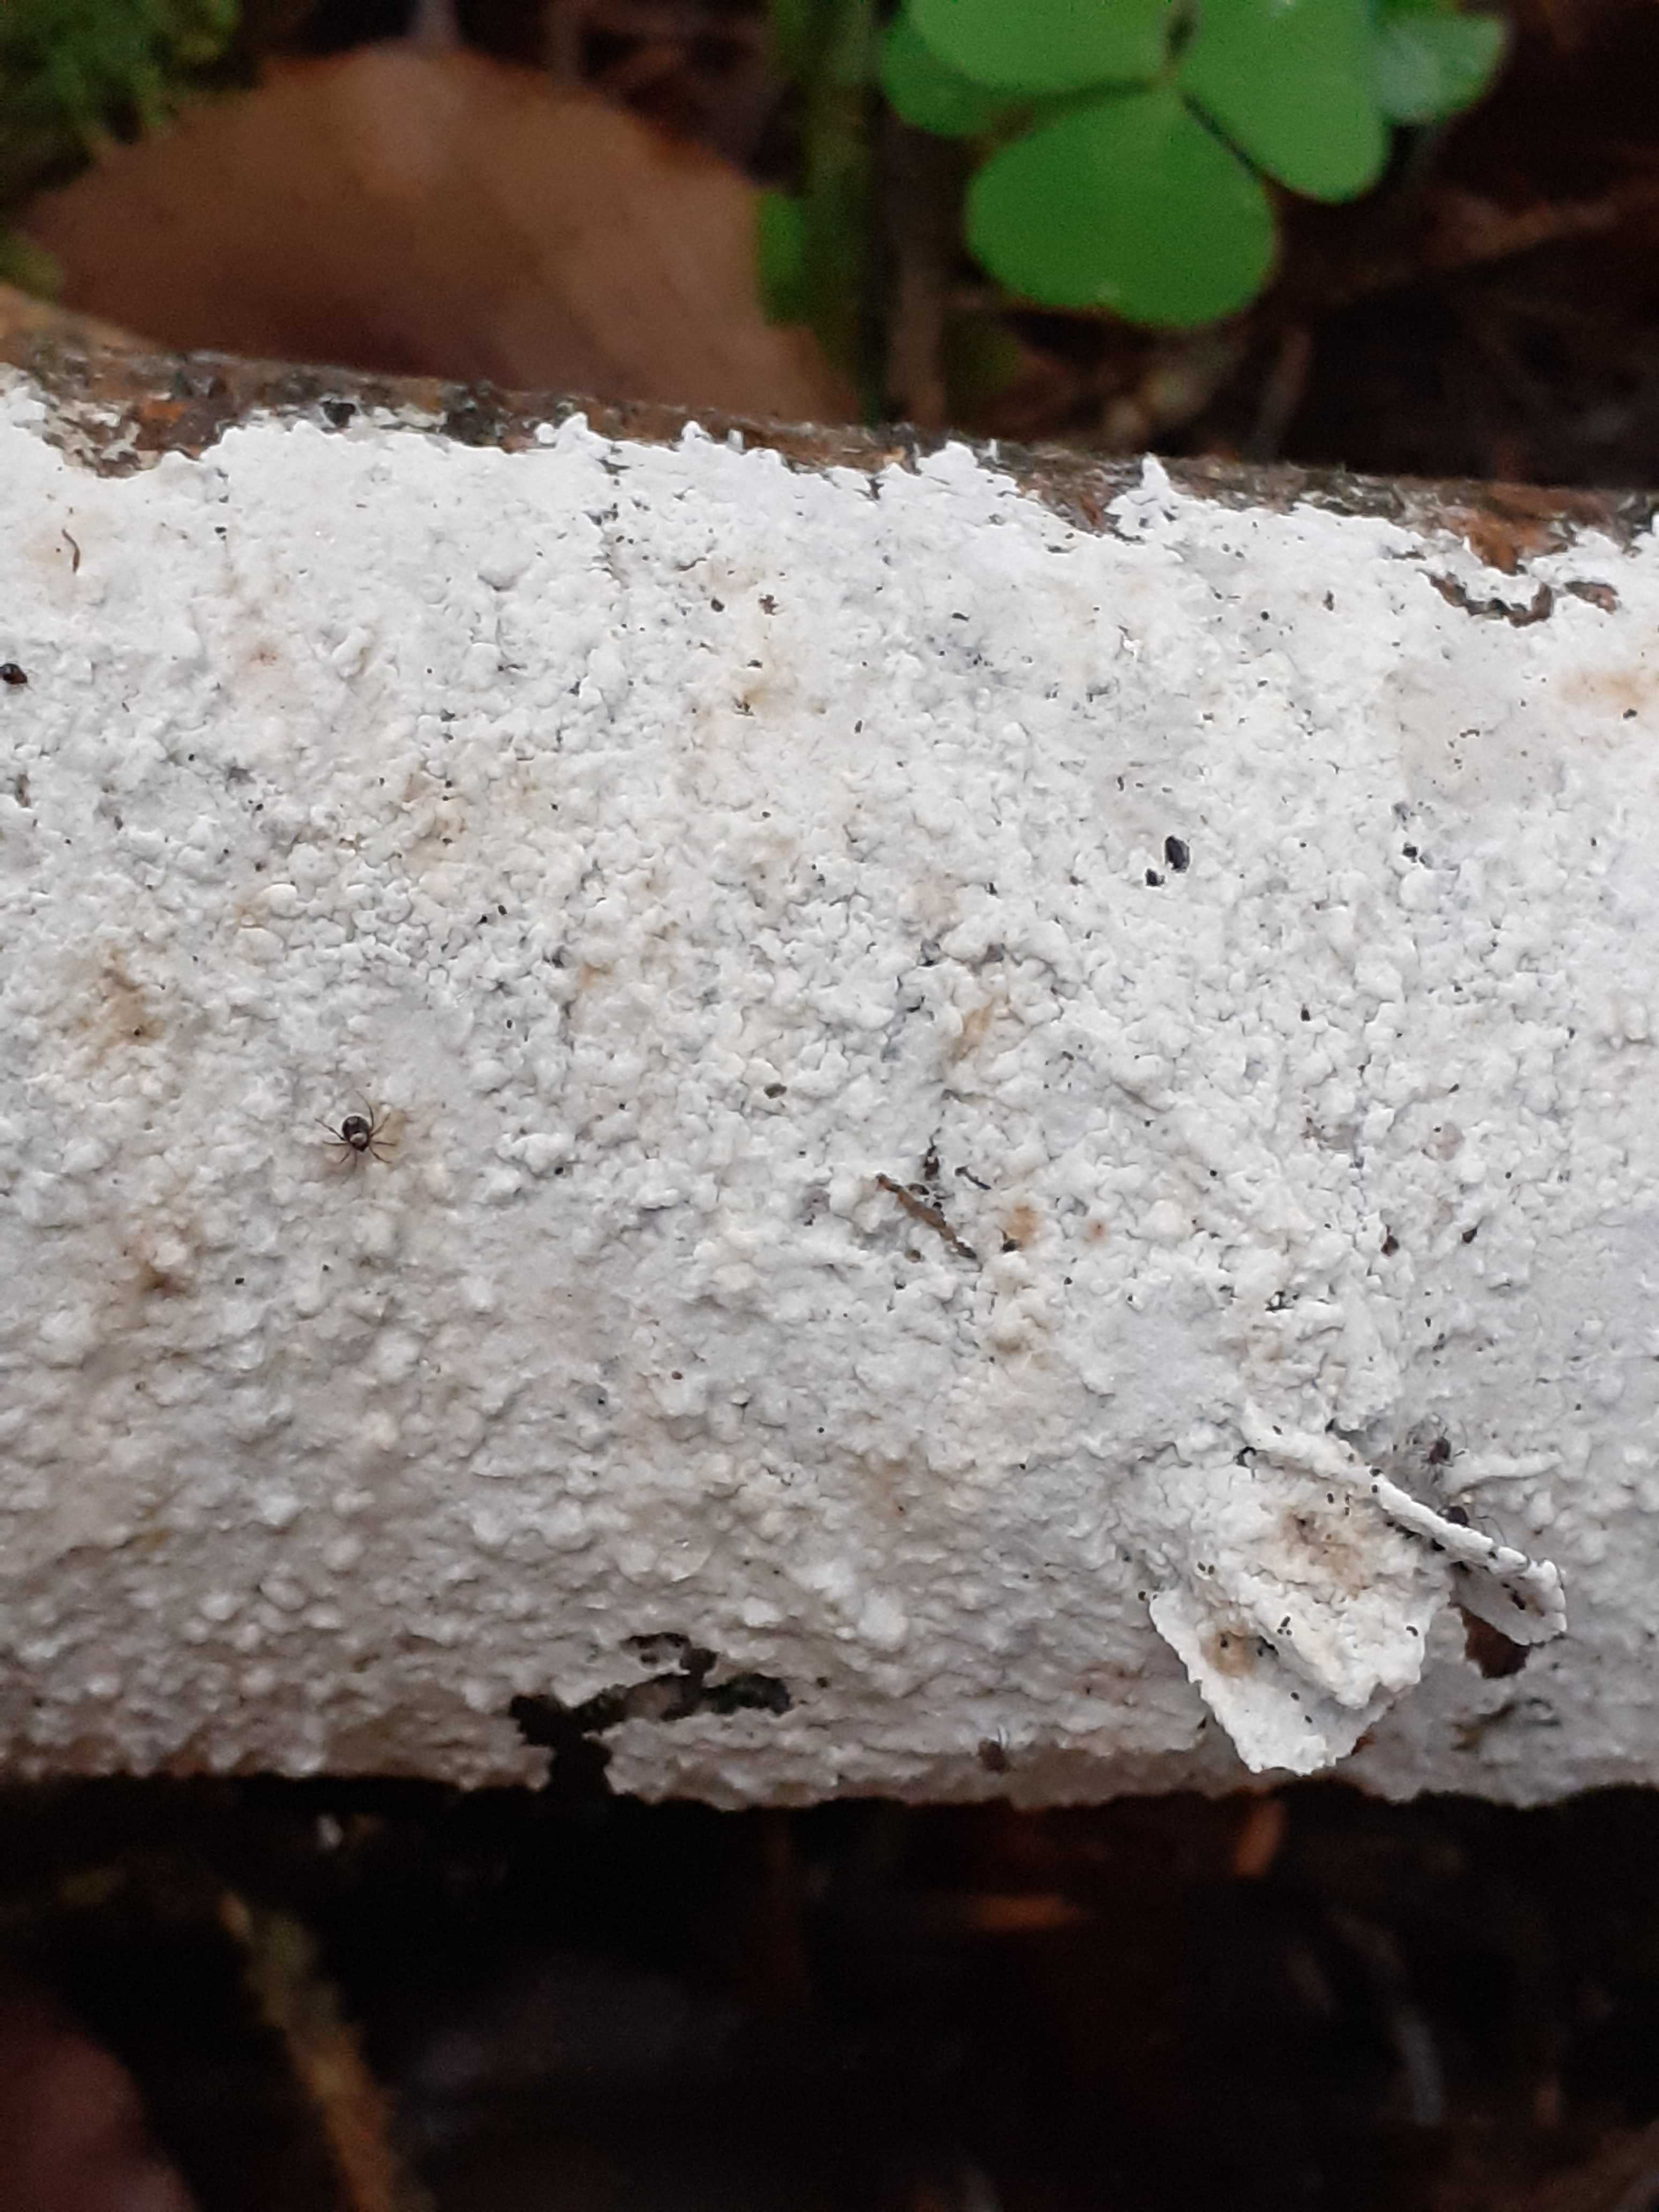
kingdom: Fungi
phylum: Basidiomycota
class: Agaricomycetes
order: Atheliales
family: Atheliaceae
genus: Athelia
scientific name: Athelia epiphylla
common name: almindelig barkhinde
